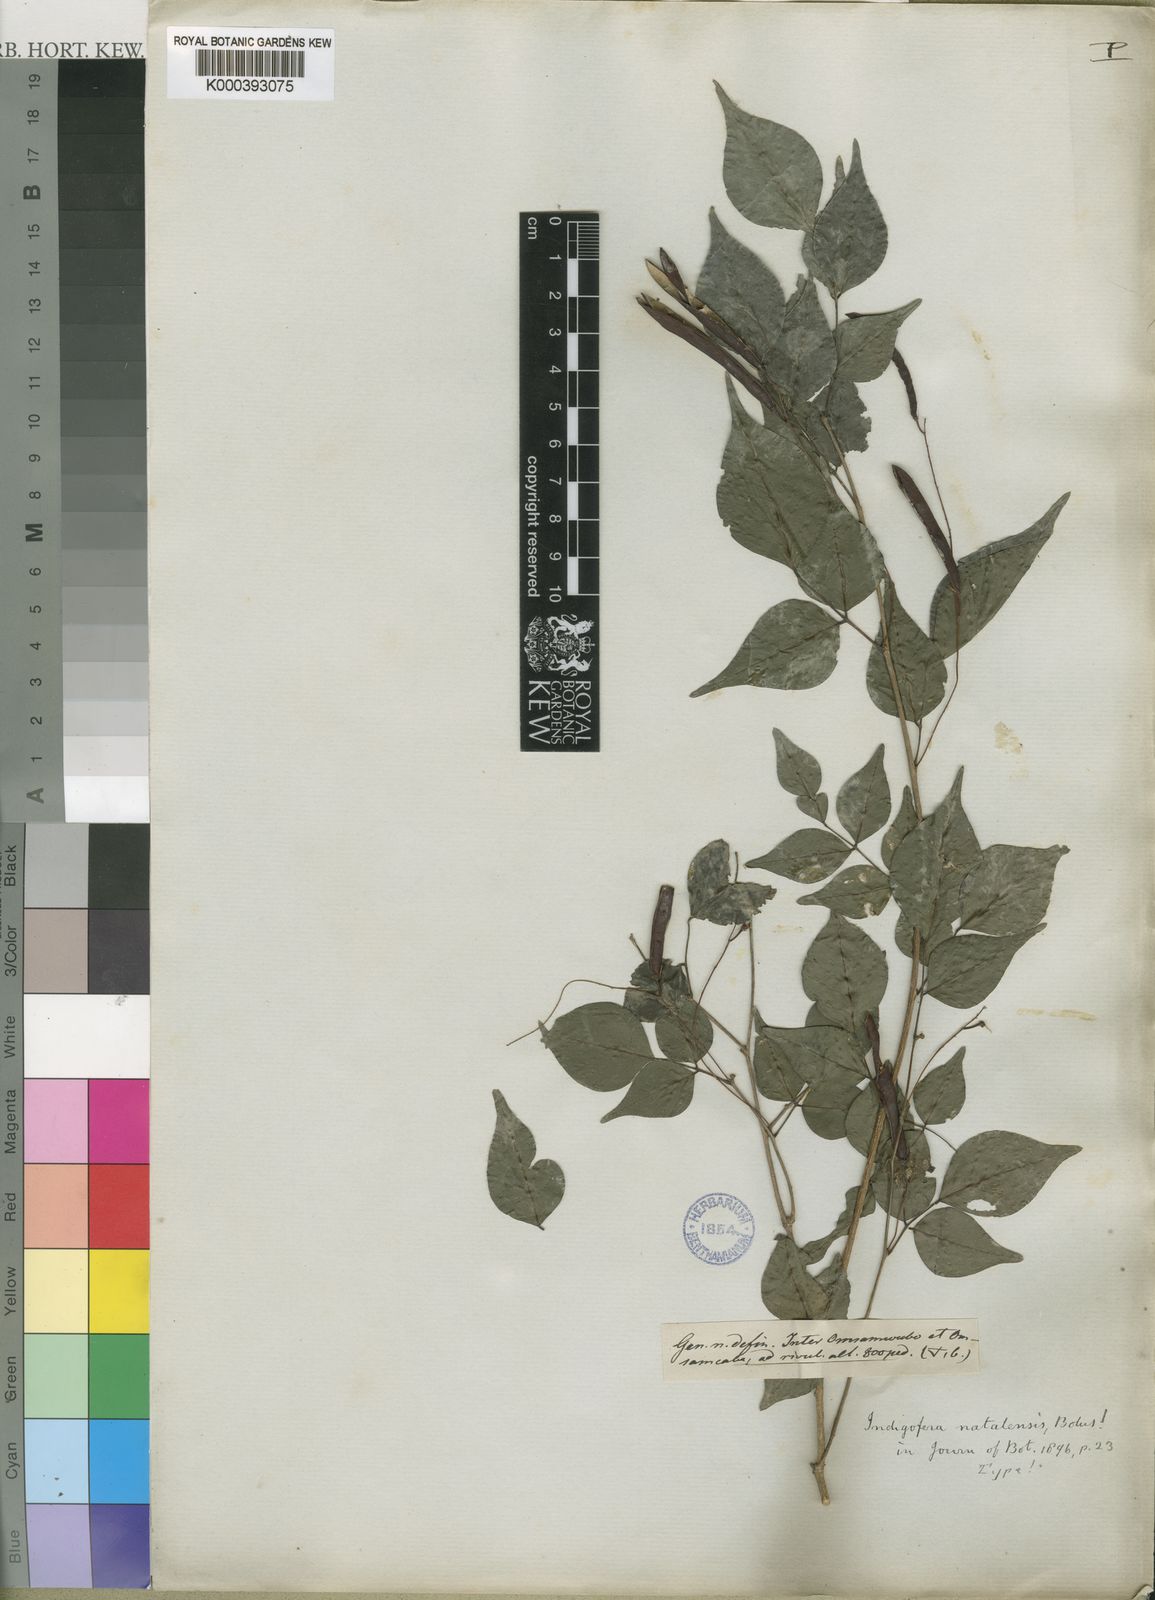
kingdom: Plantae
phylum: Tracheophyta
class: Magnoliopsida
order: Fabales
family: Fabaceae
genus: Indigofera
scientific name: Indigofera natalensis
